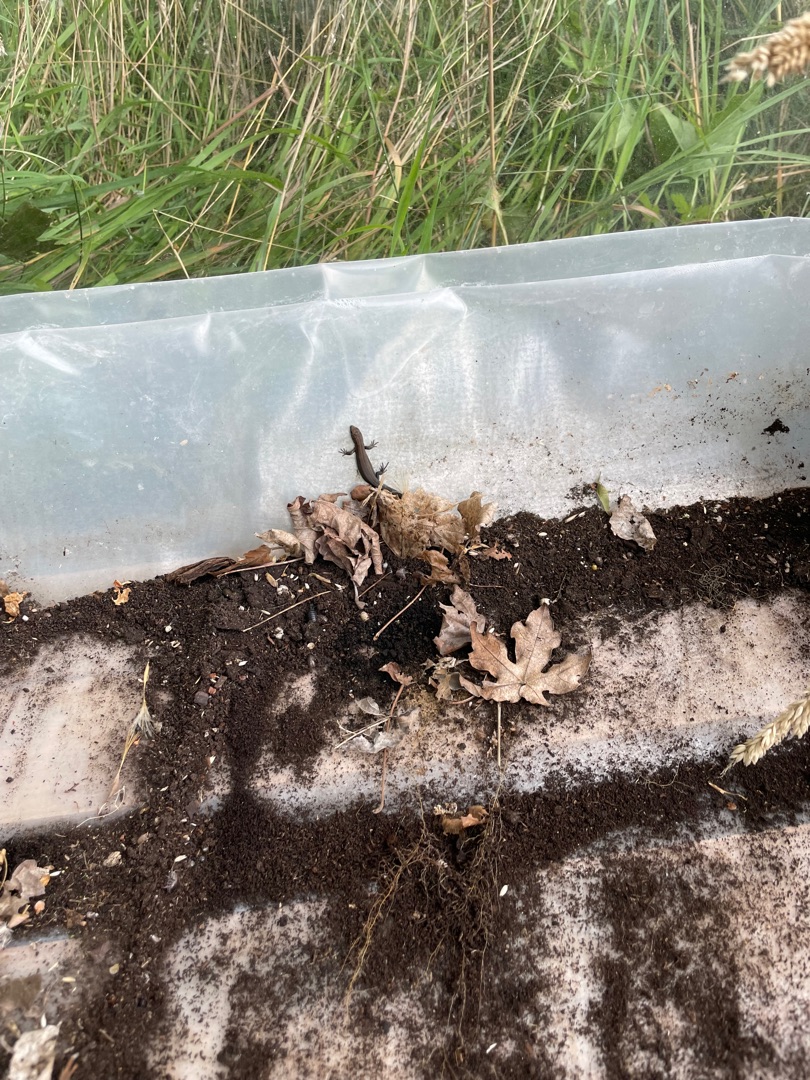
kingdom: Animalia
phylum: Chordata
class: Squamata
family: Lacertidae
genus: Zootoca
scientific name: Zootoca vivipara
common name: Skovfirben
